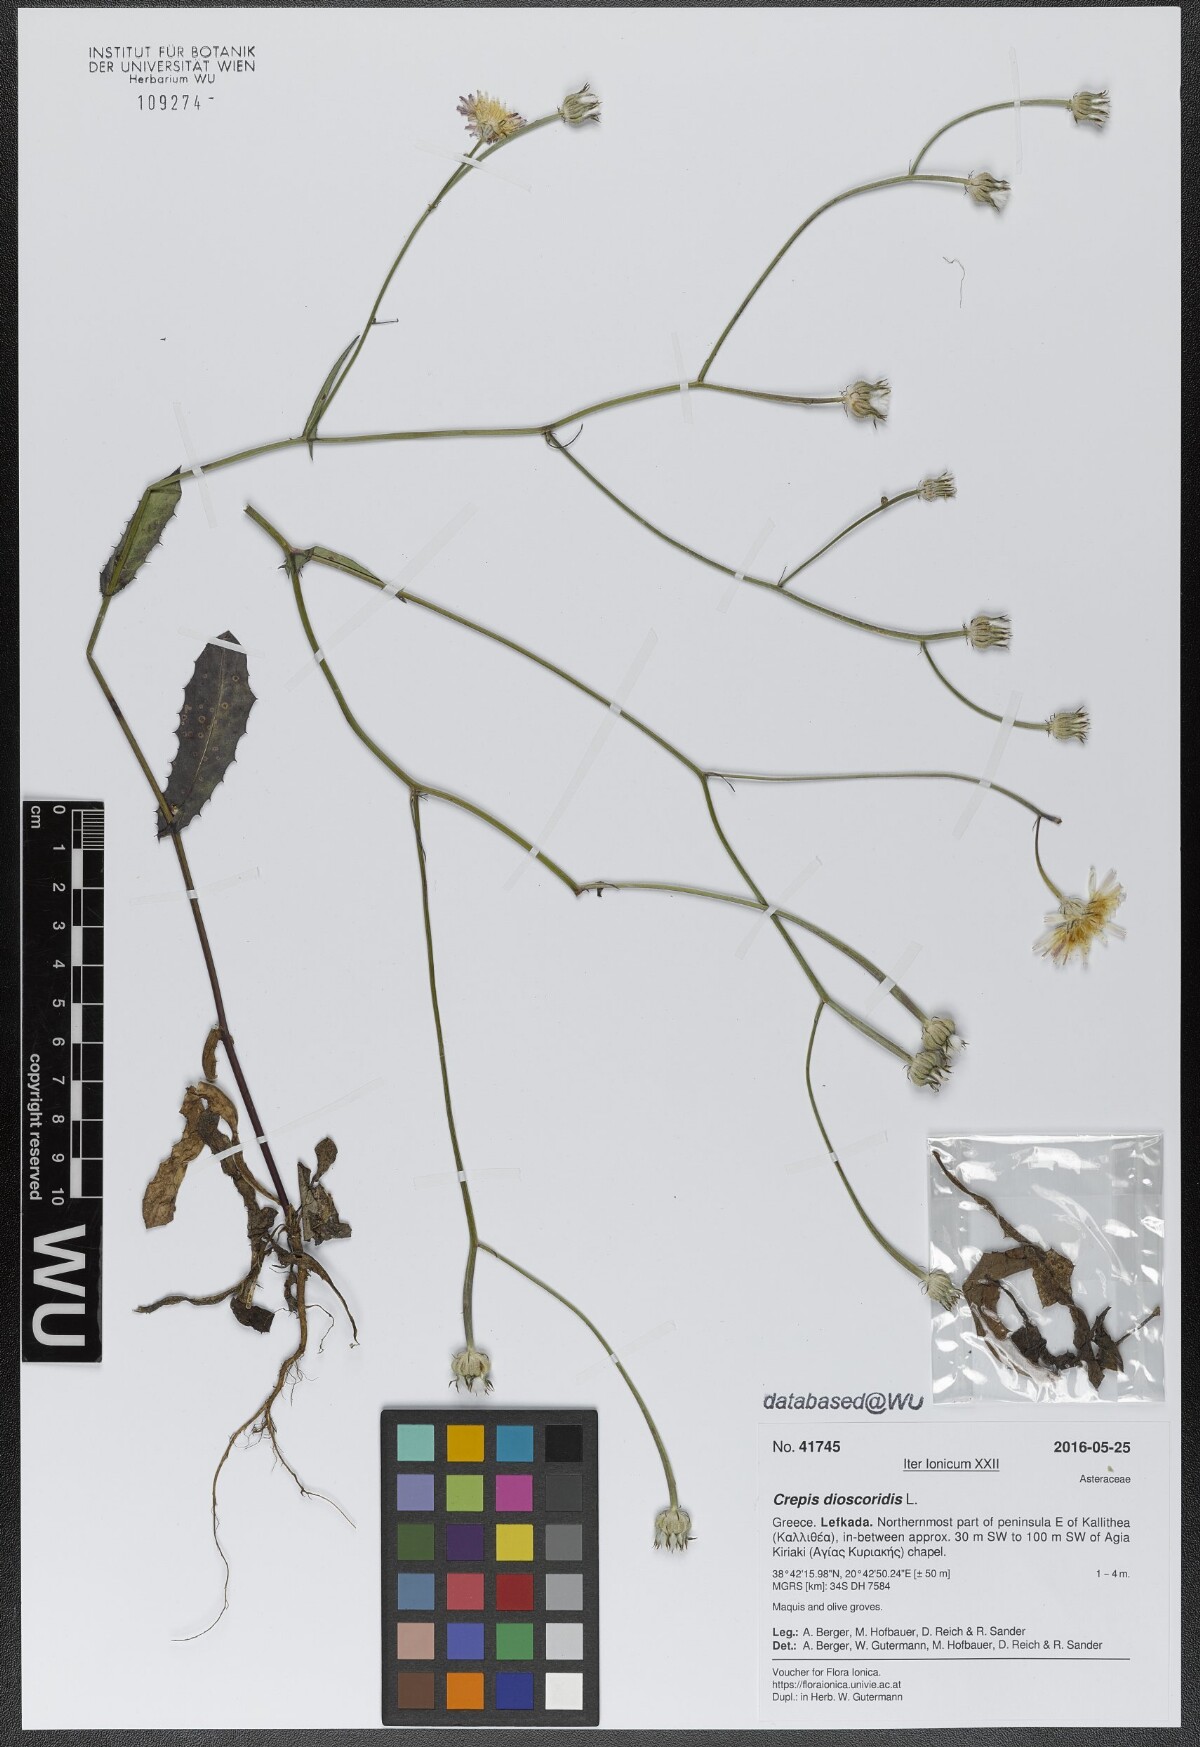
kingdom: Plantae
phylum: Tracheophyta
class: Magnoliopsida
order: Asterales
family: Asteraceae
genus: Crepis
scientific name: Crepis dioscoridis
